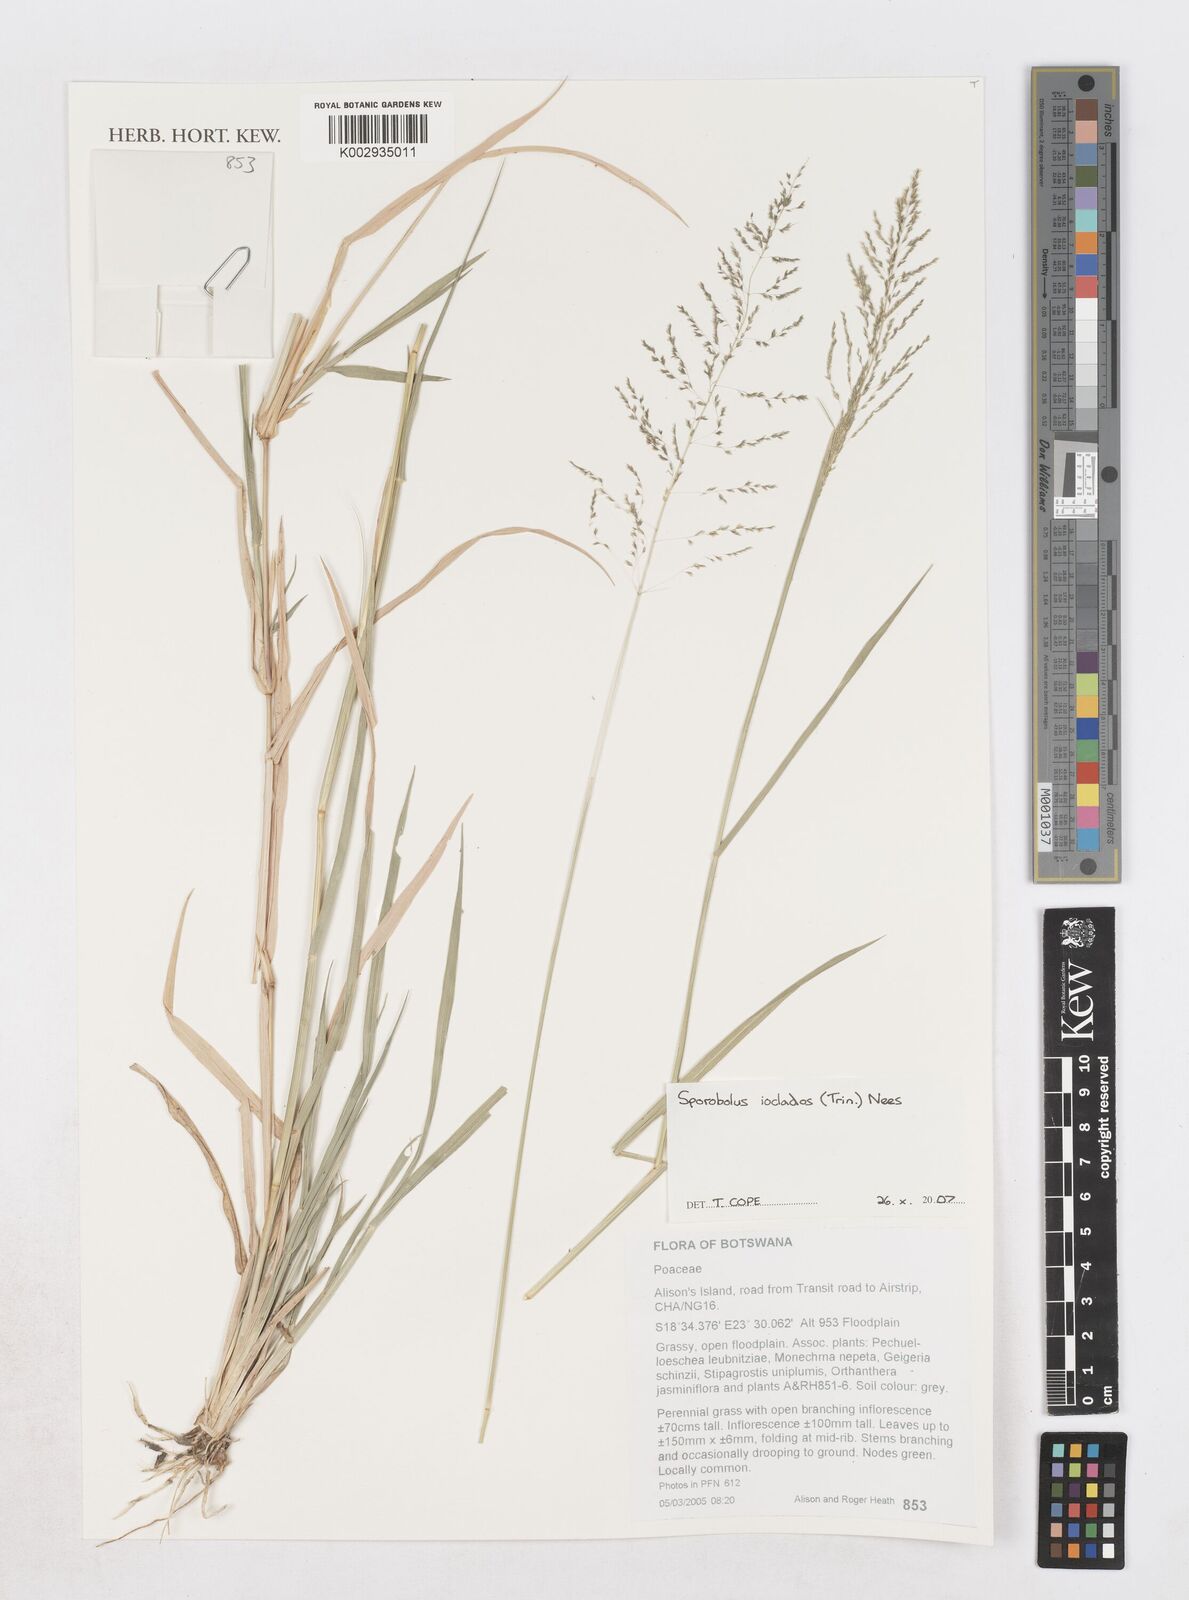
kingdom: Plantae
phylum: Tracheophyta
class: Liliopsida
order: Poales
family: Poaceae
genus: Sporobolus
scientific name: Sporobolus ioclados
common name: Pan dropseed
